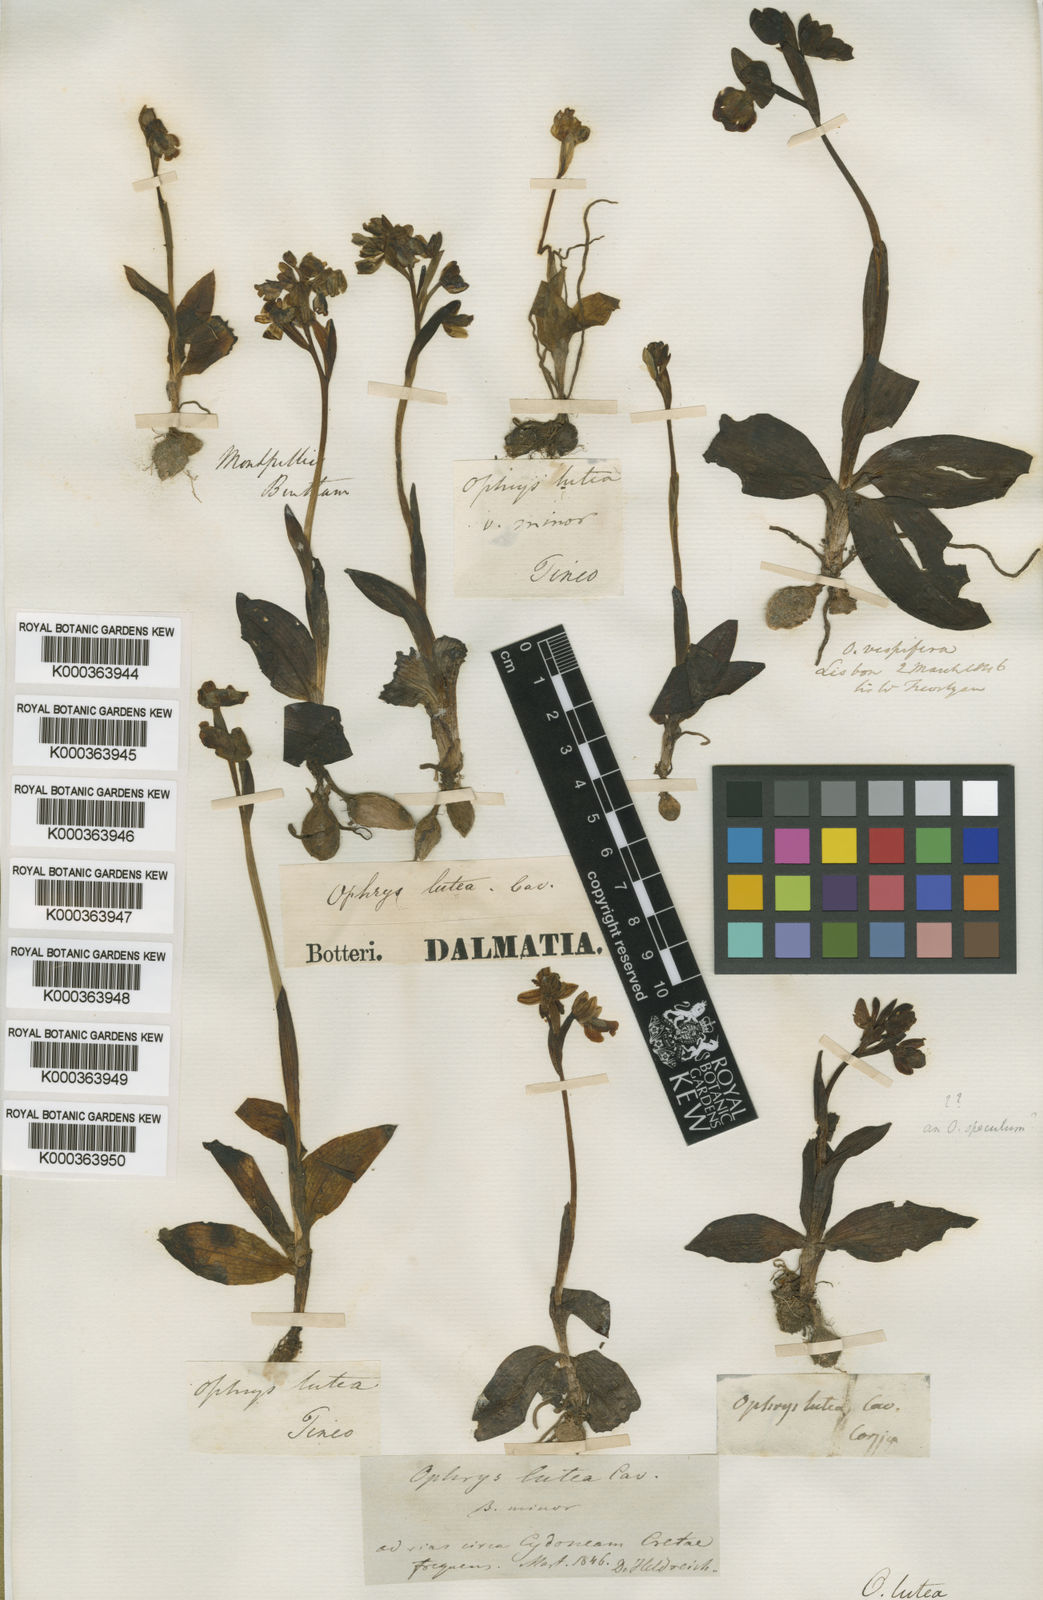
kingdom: Plantae
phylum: Tracheophyta
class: Liliopsida
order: Asparagales
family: Orchidaceae
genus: Ophrys
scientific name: Ophrys lutea
